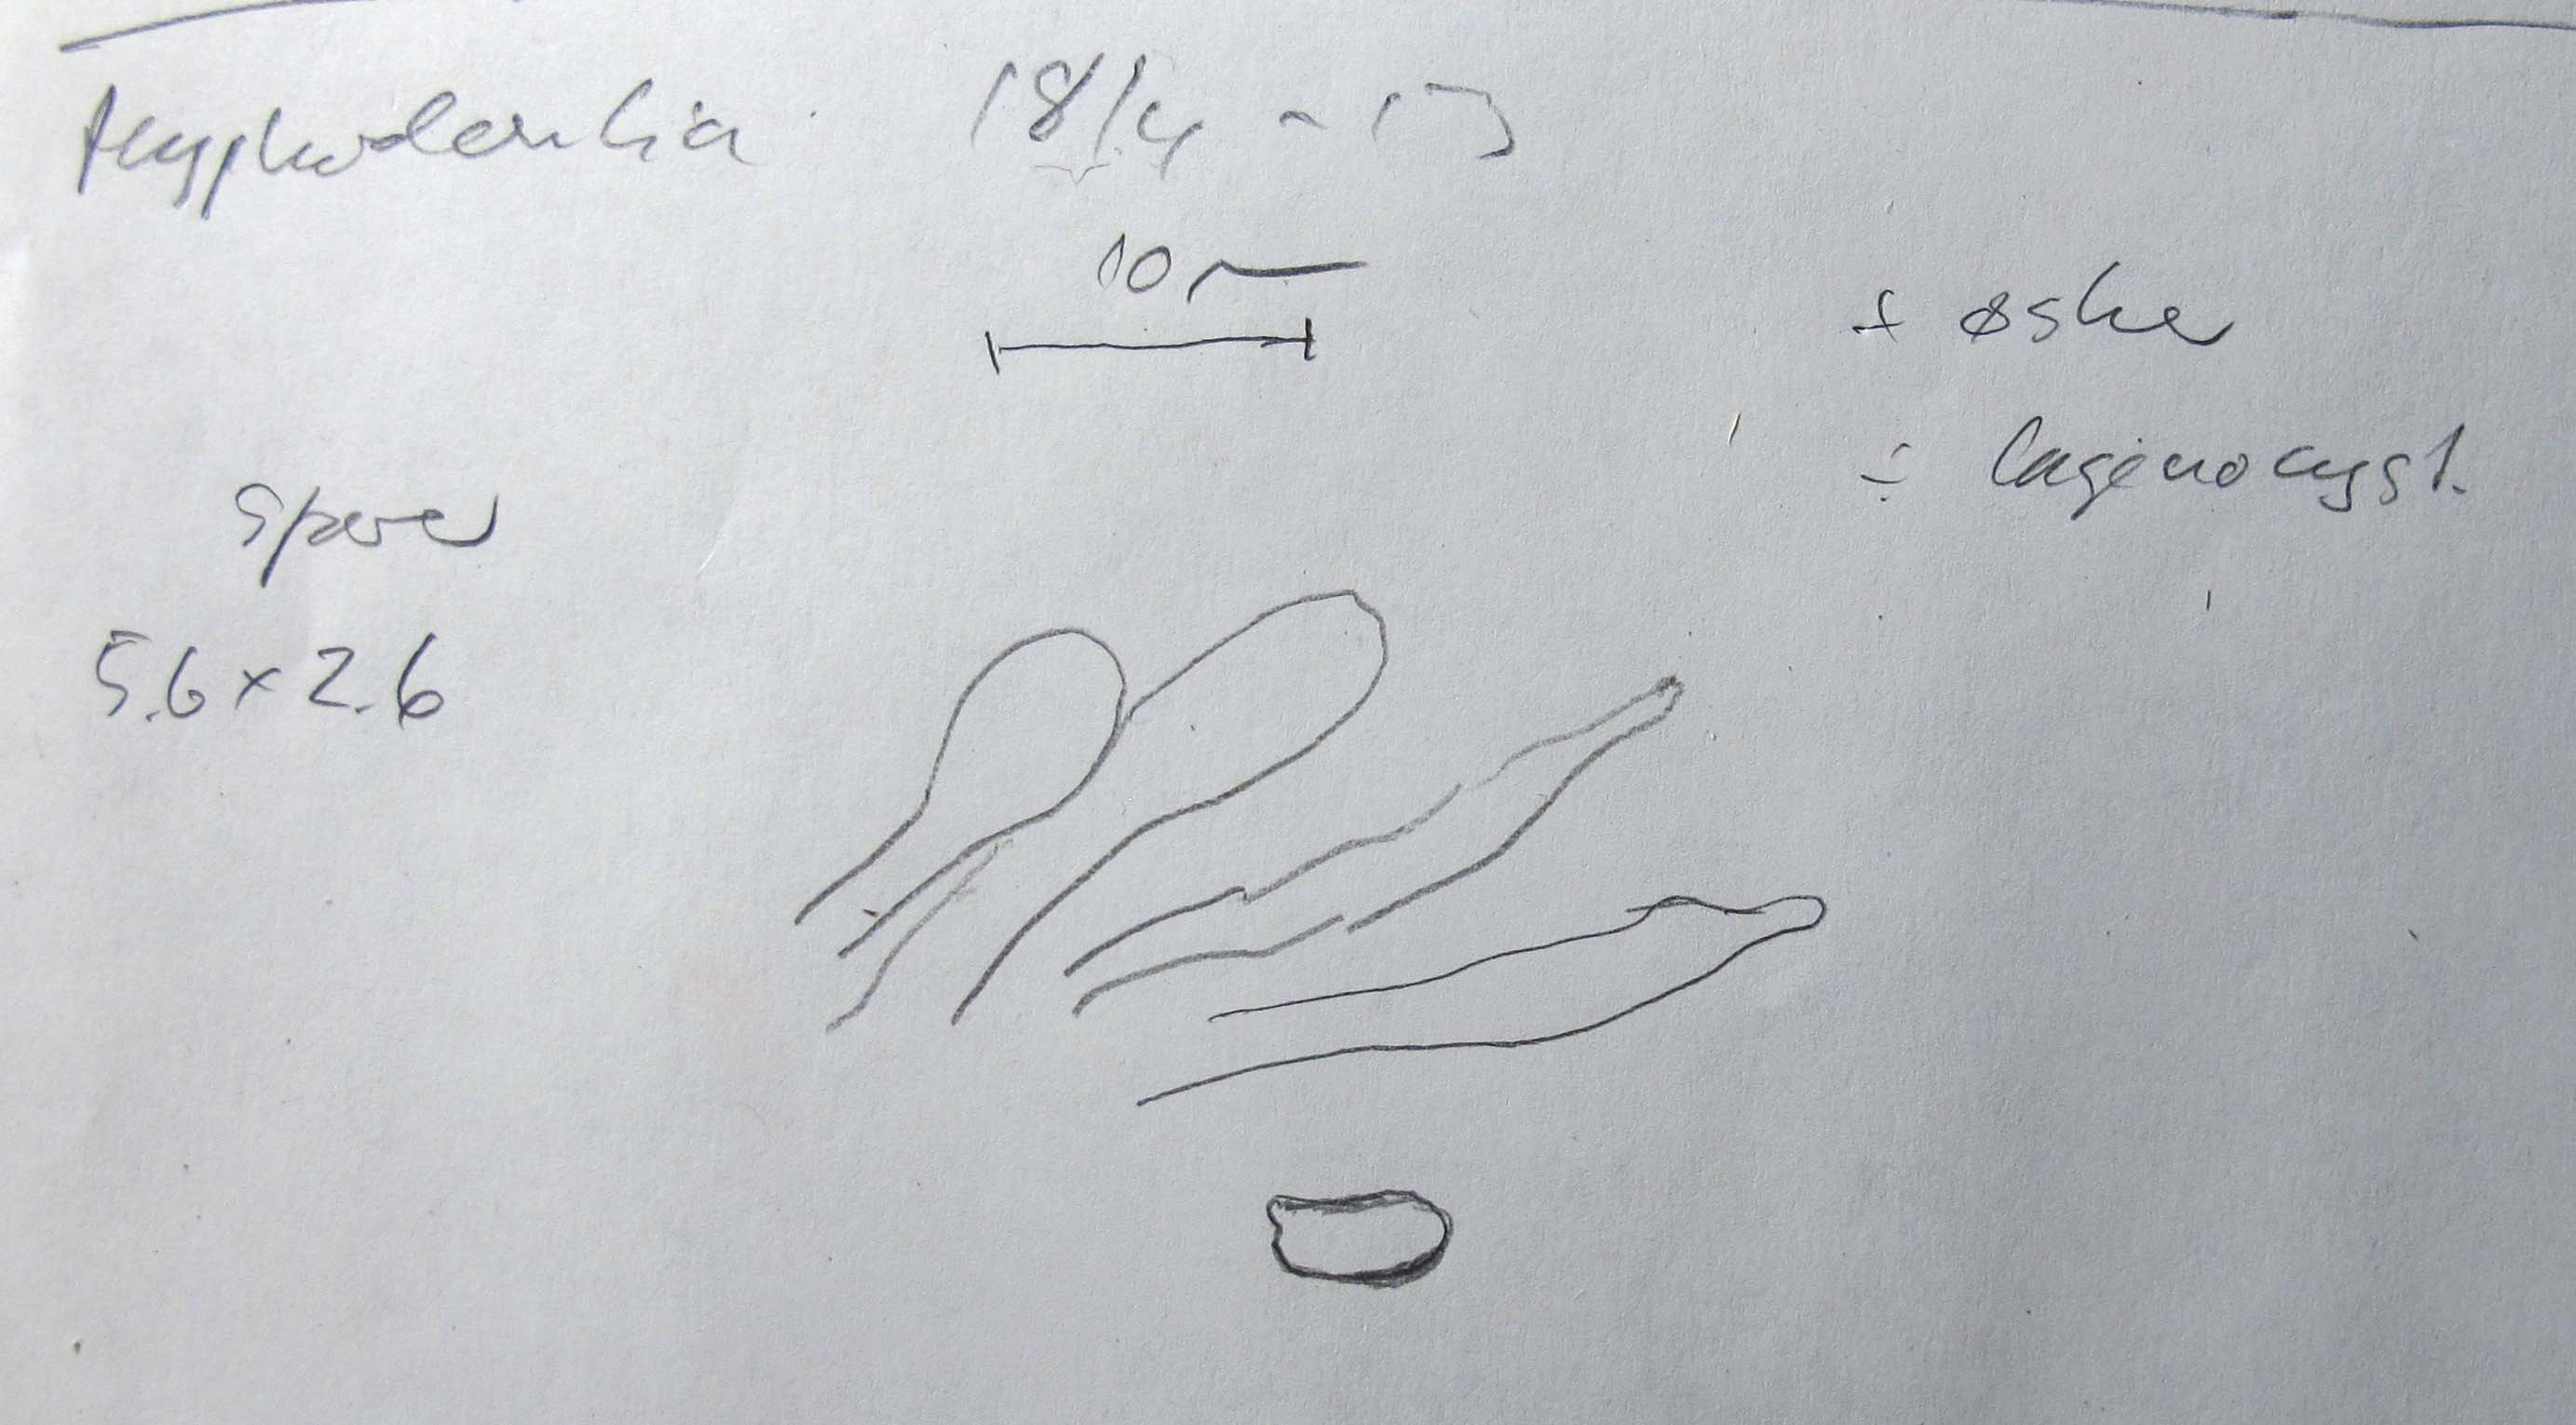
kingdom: Fungi
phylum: Basidiomycota
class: Agaricomycetes
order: Corticiales
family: Corticiaceae
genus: Lyomyces
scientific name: Lyomyces crustosus
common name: vortet hyldehinde
